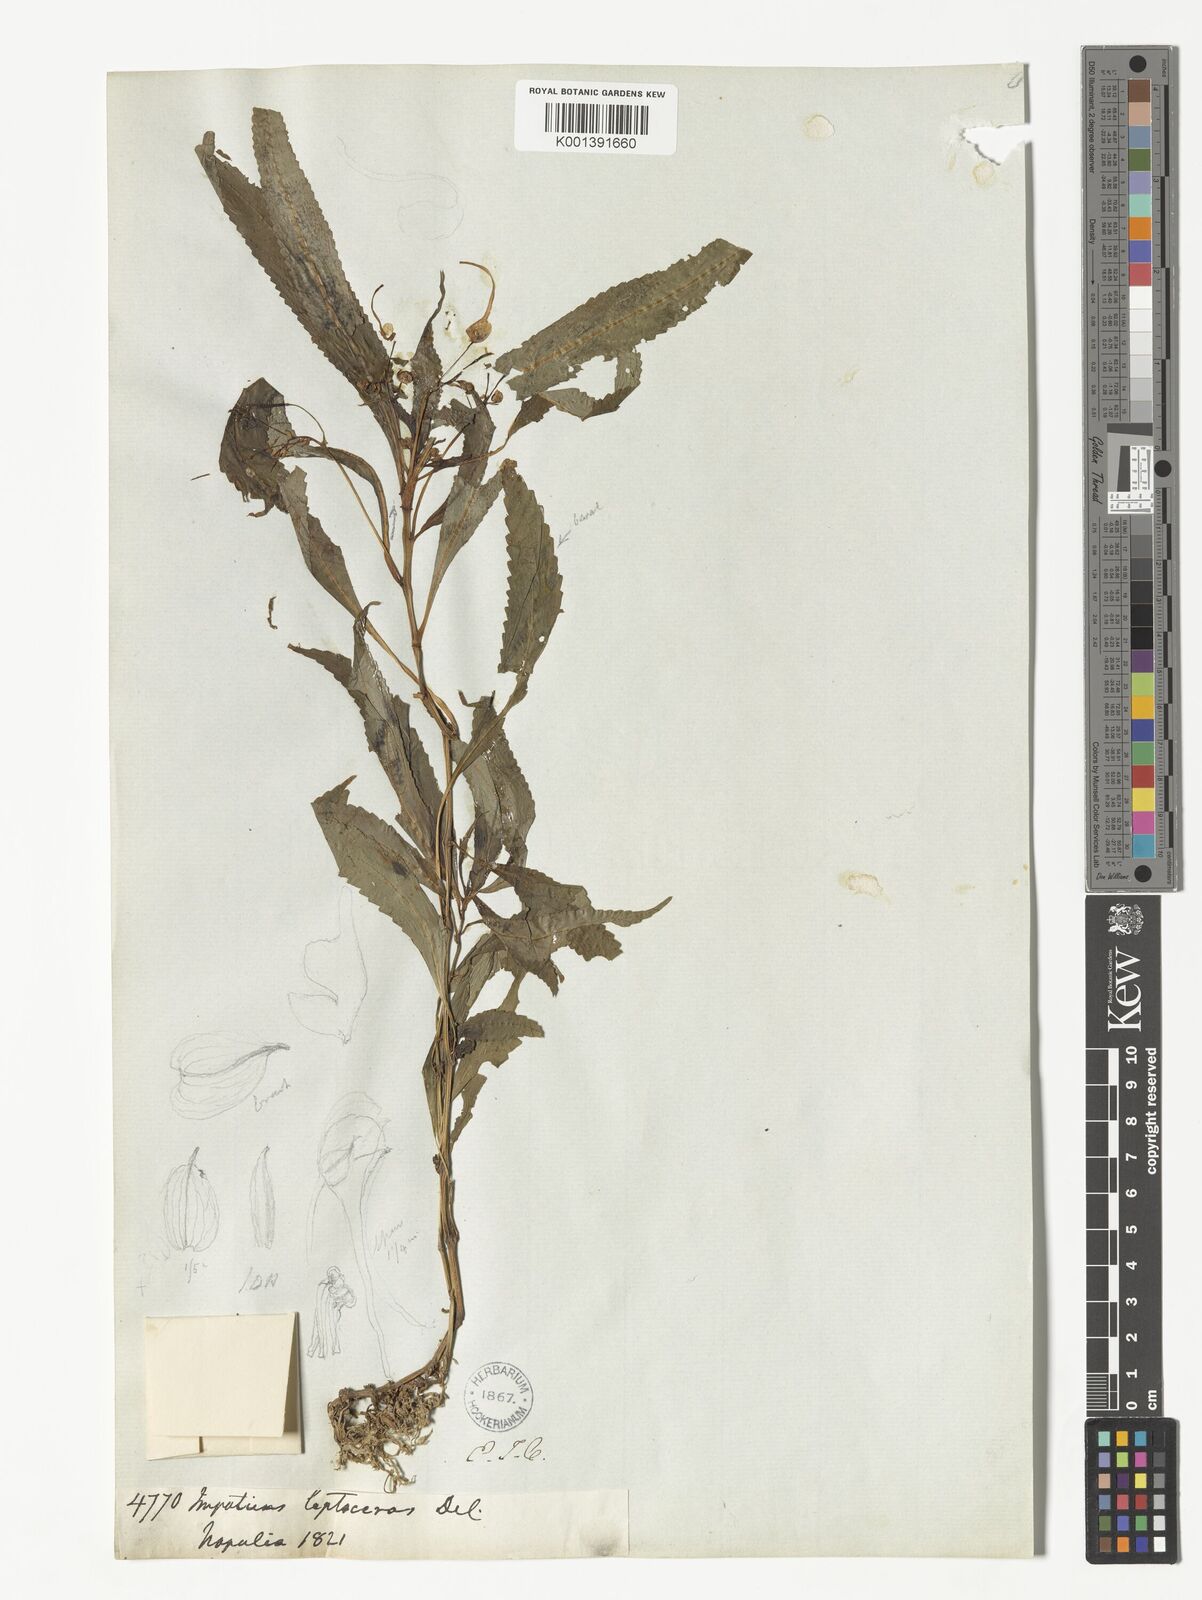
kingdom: Plantae
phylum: Tracheophyta
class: Magnoliopsida
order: Ericales
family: Balsaminaceae
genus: Impatiens
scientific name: Impatiens leptoceras
